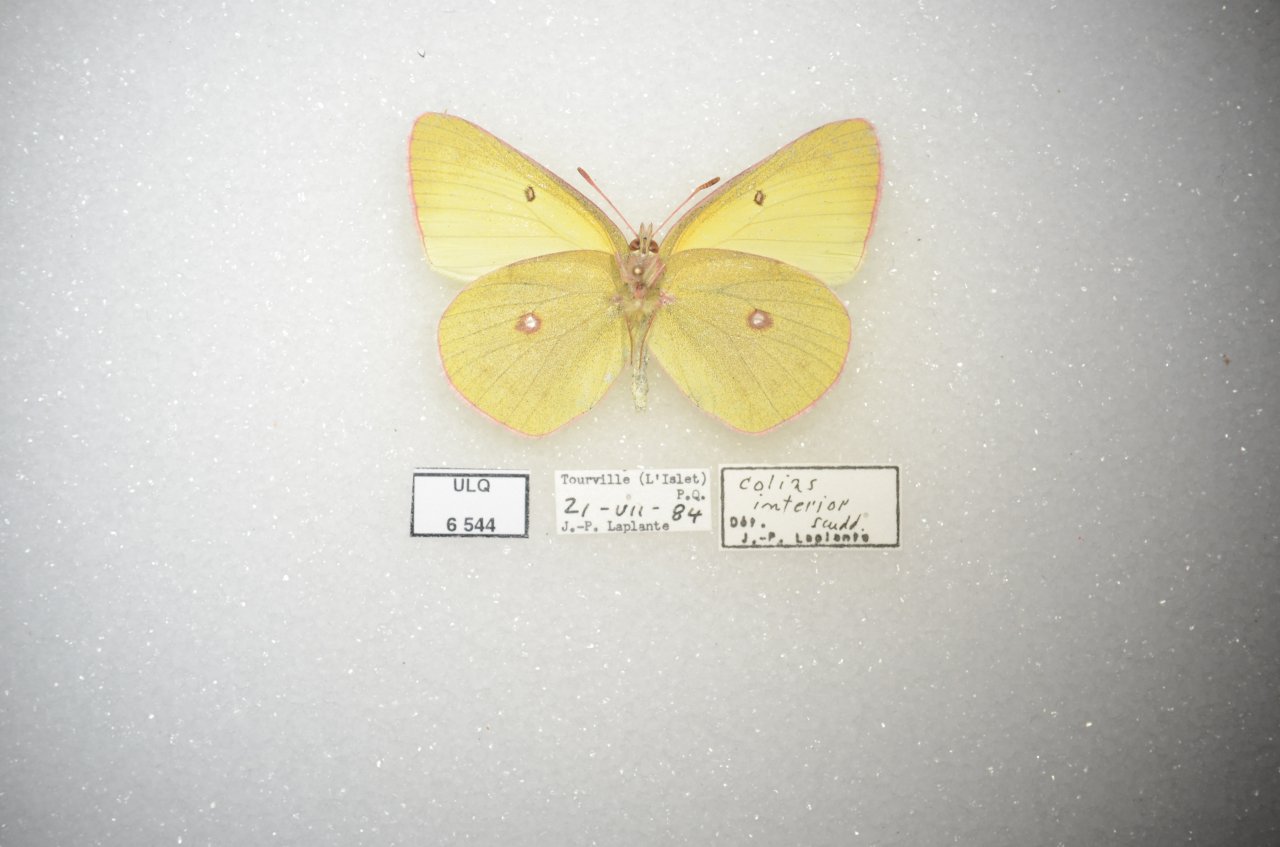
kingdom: Animalia
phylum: Arthropoda
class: Insecta
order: Lepidoptera
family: Pieridae
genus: Colias
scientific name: Colias interior
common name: Pink-edged Sulphur
